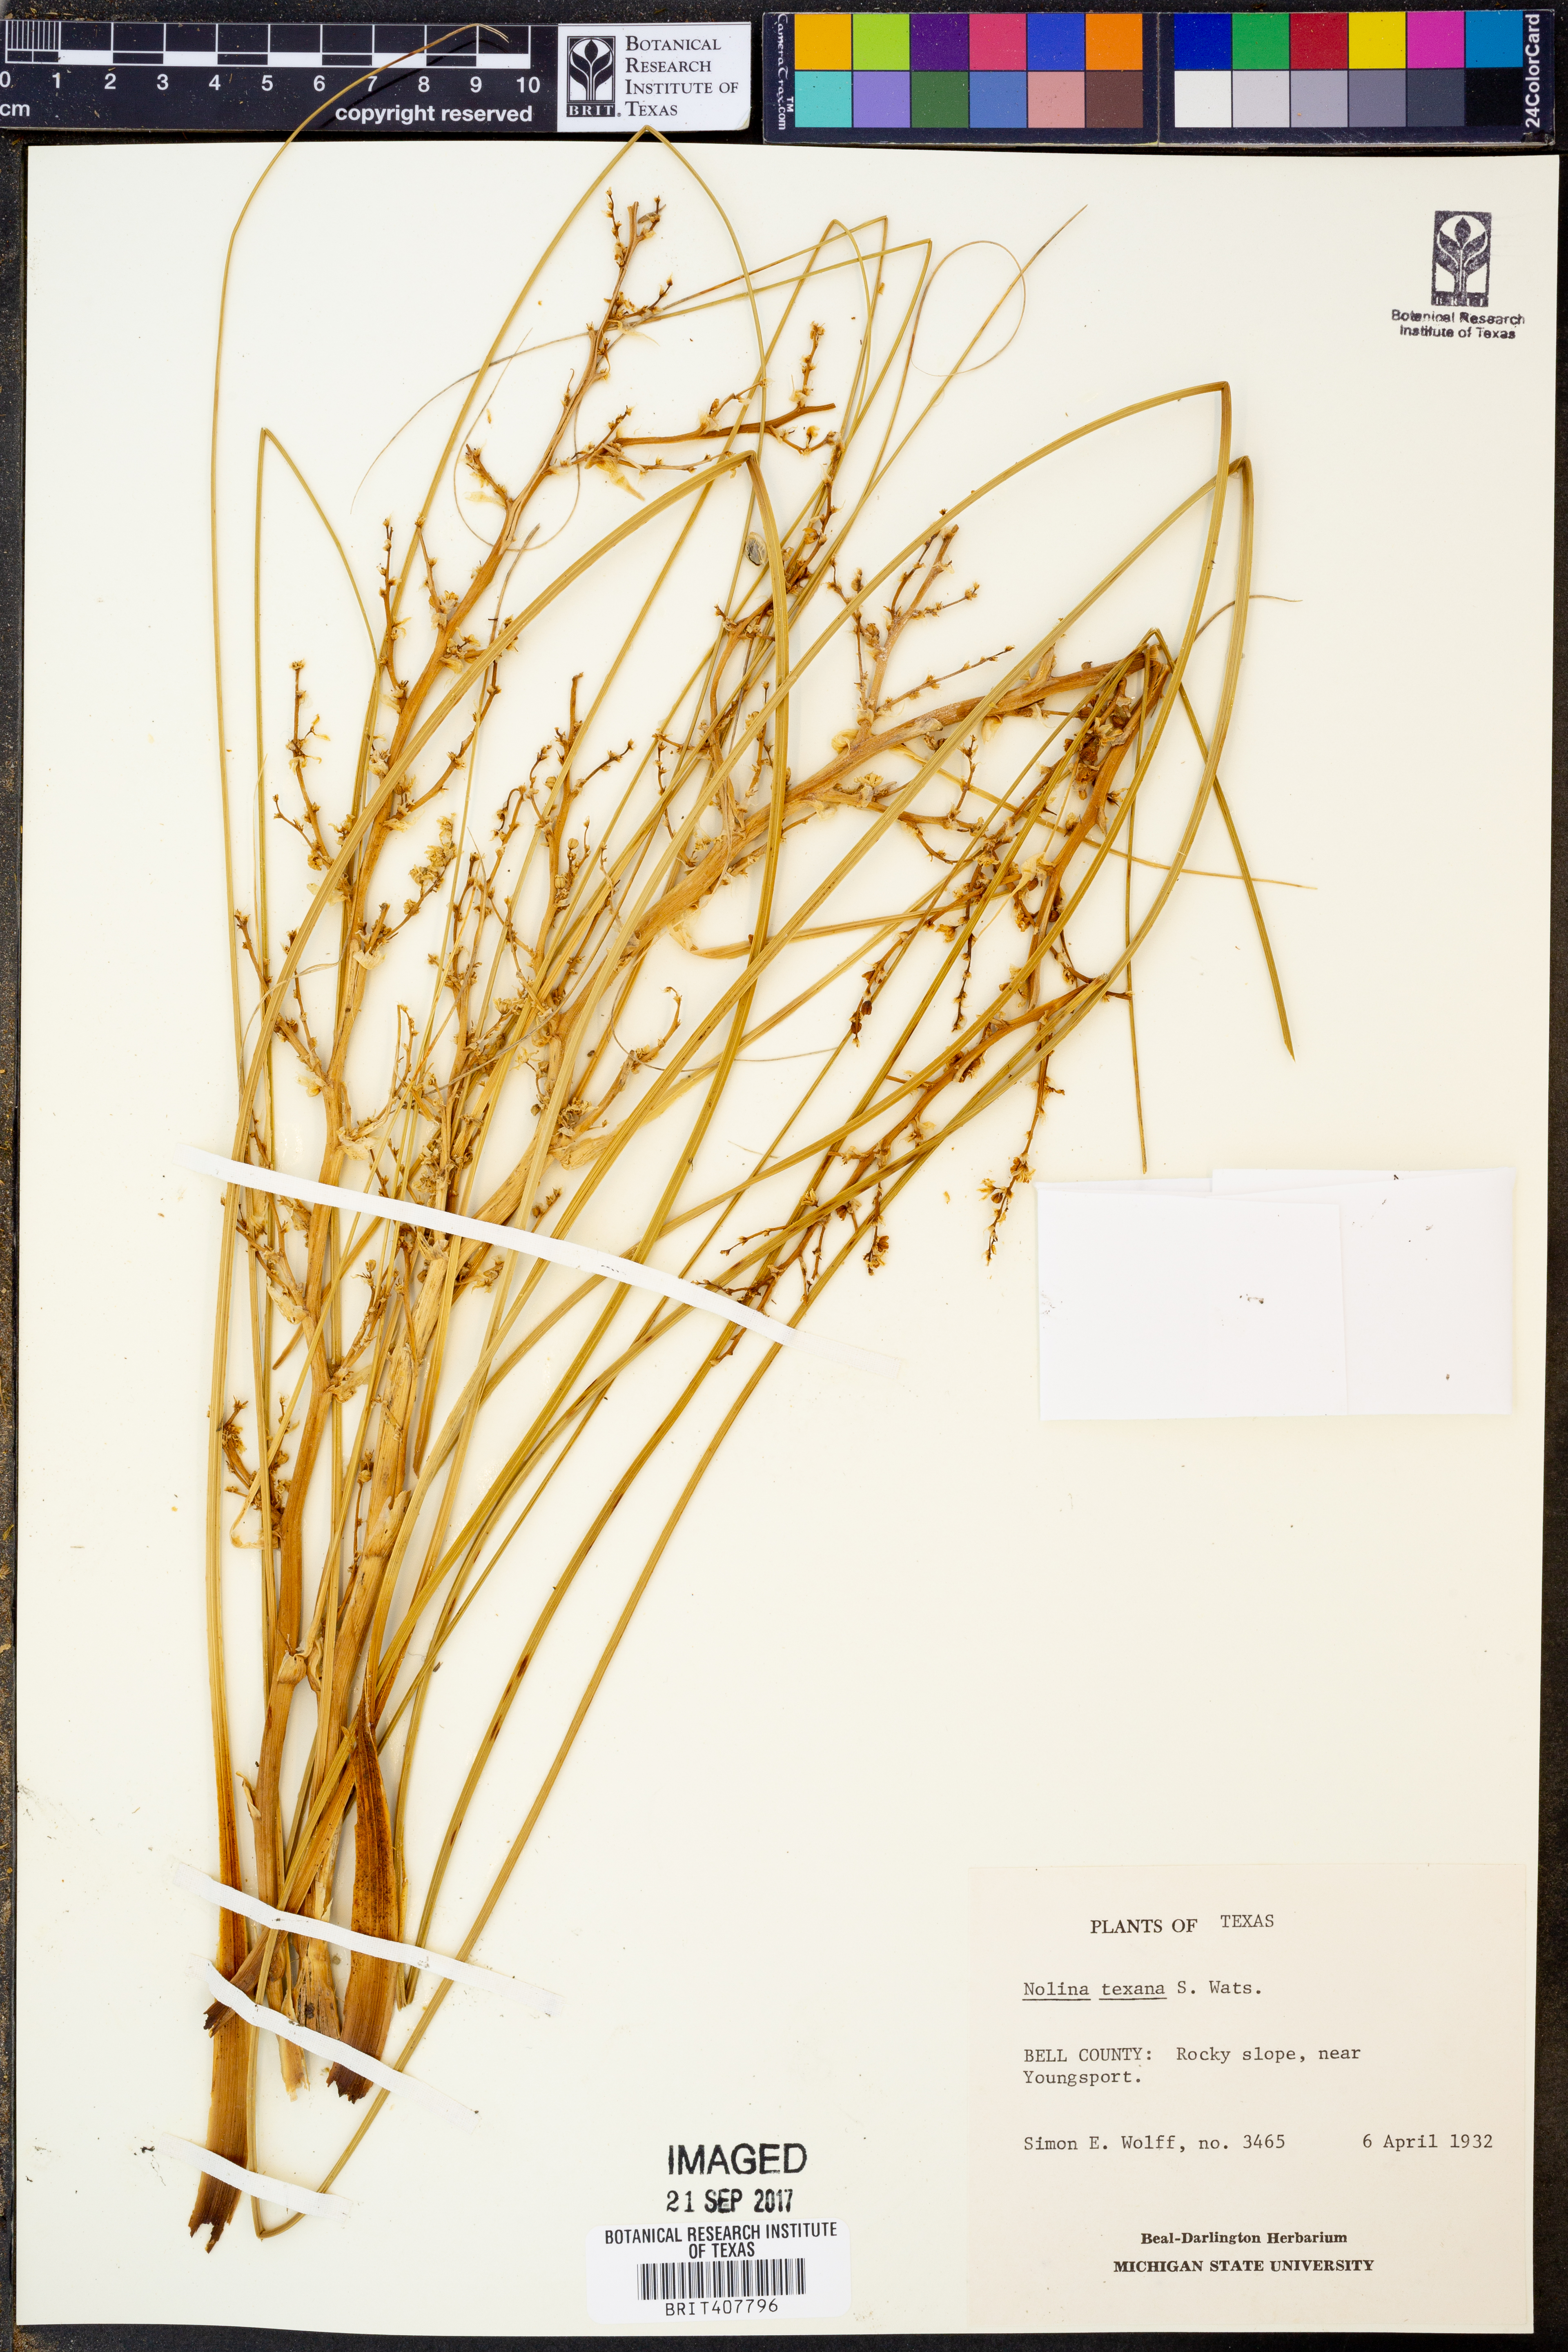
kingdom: Plantae
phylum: Tracheophyta
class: Liliopsida
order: Asparagales
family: Asparagaceae
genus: Nolina
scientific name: Nolina texana
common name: Texas sacahuiste
